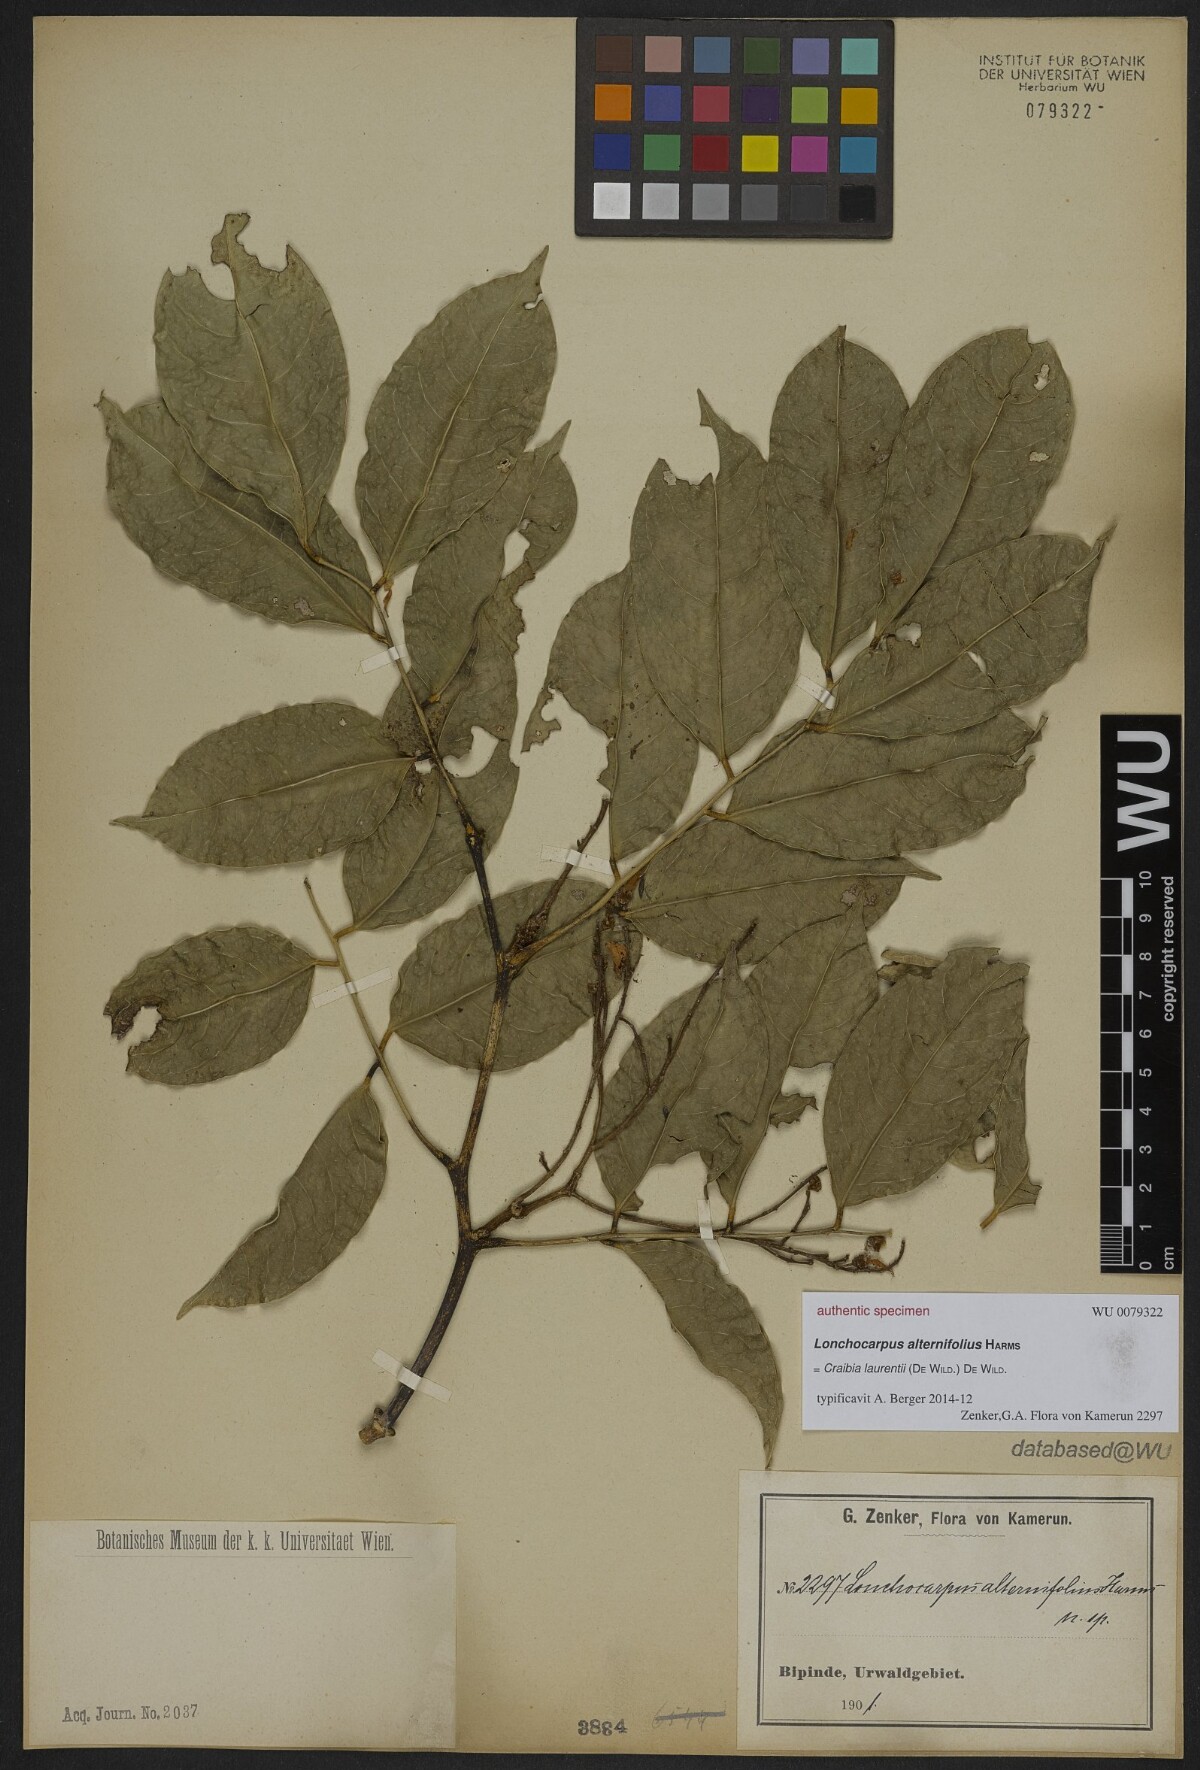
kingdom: Plantae
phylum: Tracheophyta
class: Magnoliopsida
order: Fabales
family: Fabaceae
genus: Lonchocarpus
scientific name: Lonchocarpus
